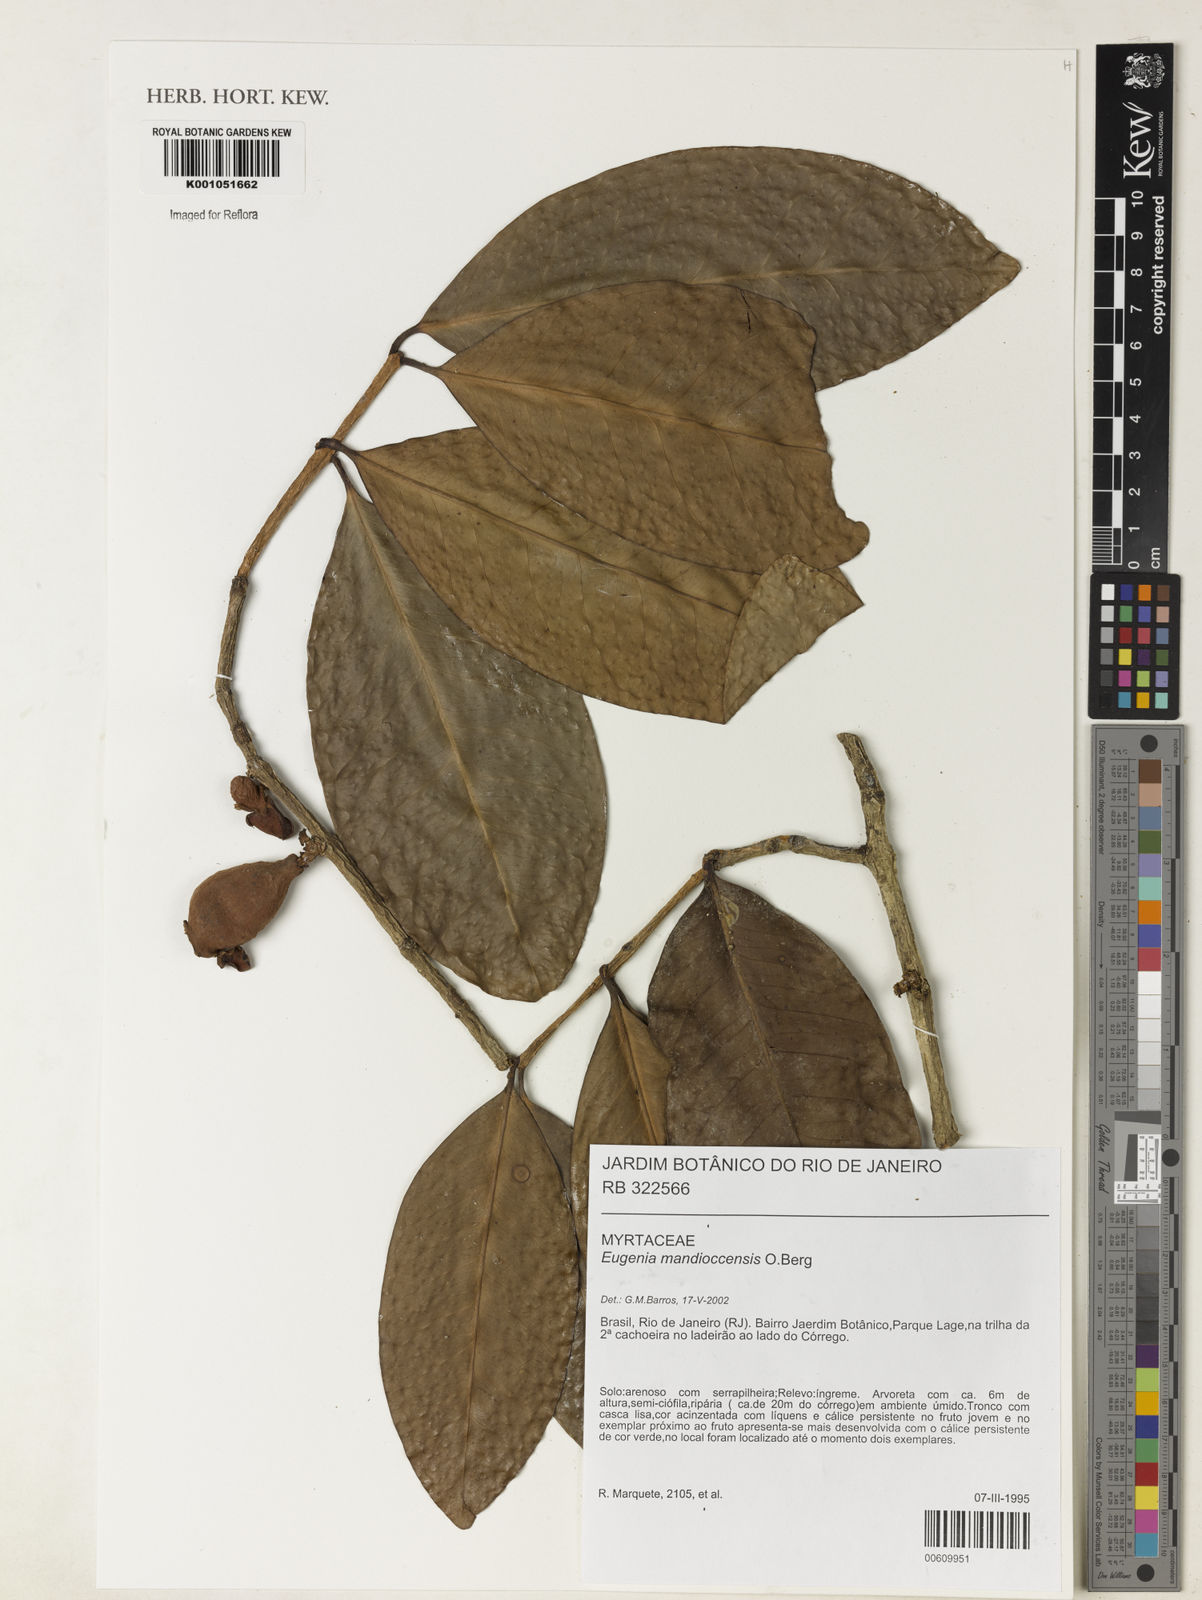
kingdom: Plantae
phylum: Tracheophyta
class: Magnoliopsida
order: Myrtales
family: Myrtaceae
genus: Eugenia
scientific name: Eugenia mandioccensis
